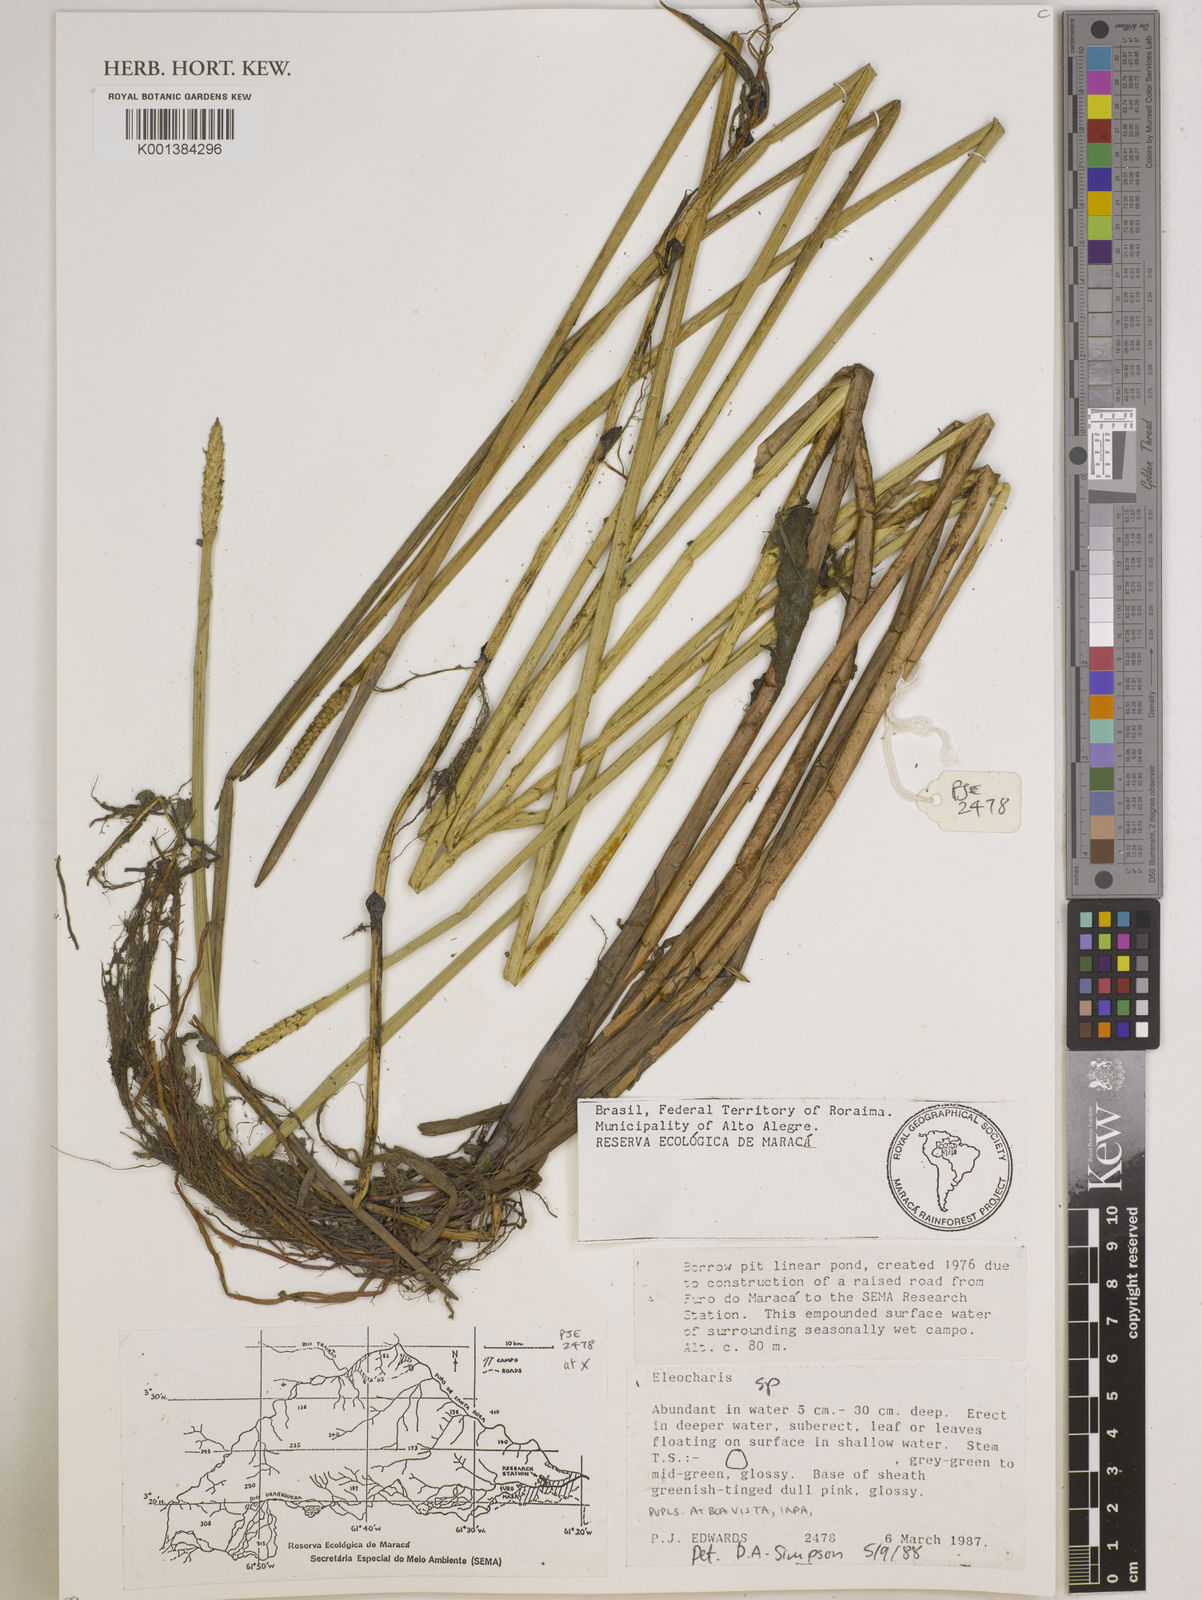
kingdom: Plantae
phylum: Tracheophyta
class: Liliopsida
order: Poales
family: Cyperaceae
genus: Eleocharis
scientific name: Eleocharis
